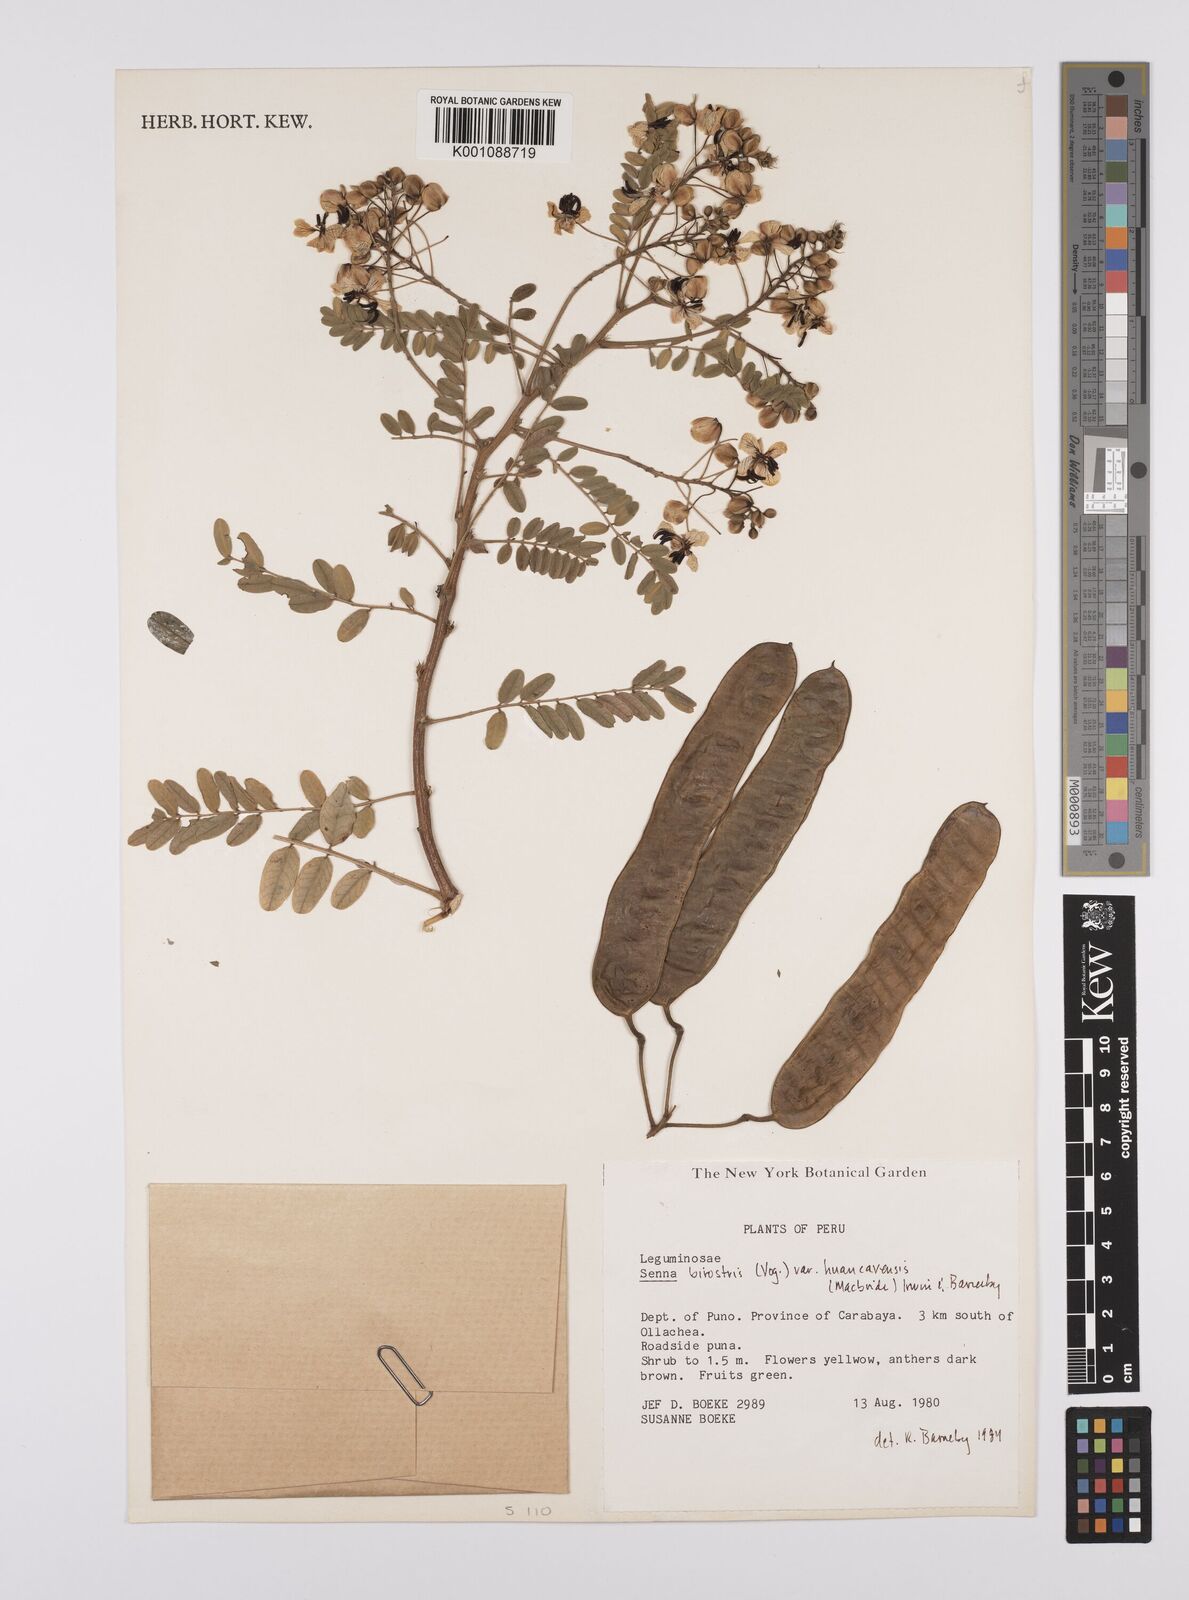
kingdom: Plantae
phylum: Tracheophyta
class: Magnoliopsida
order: Fabales
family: Fabaceae
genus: Senna
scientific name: Senna birostris
